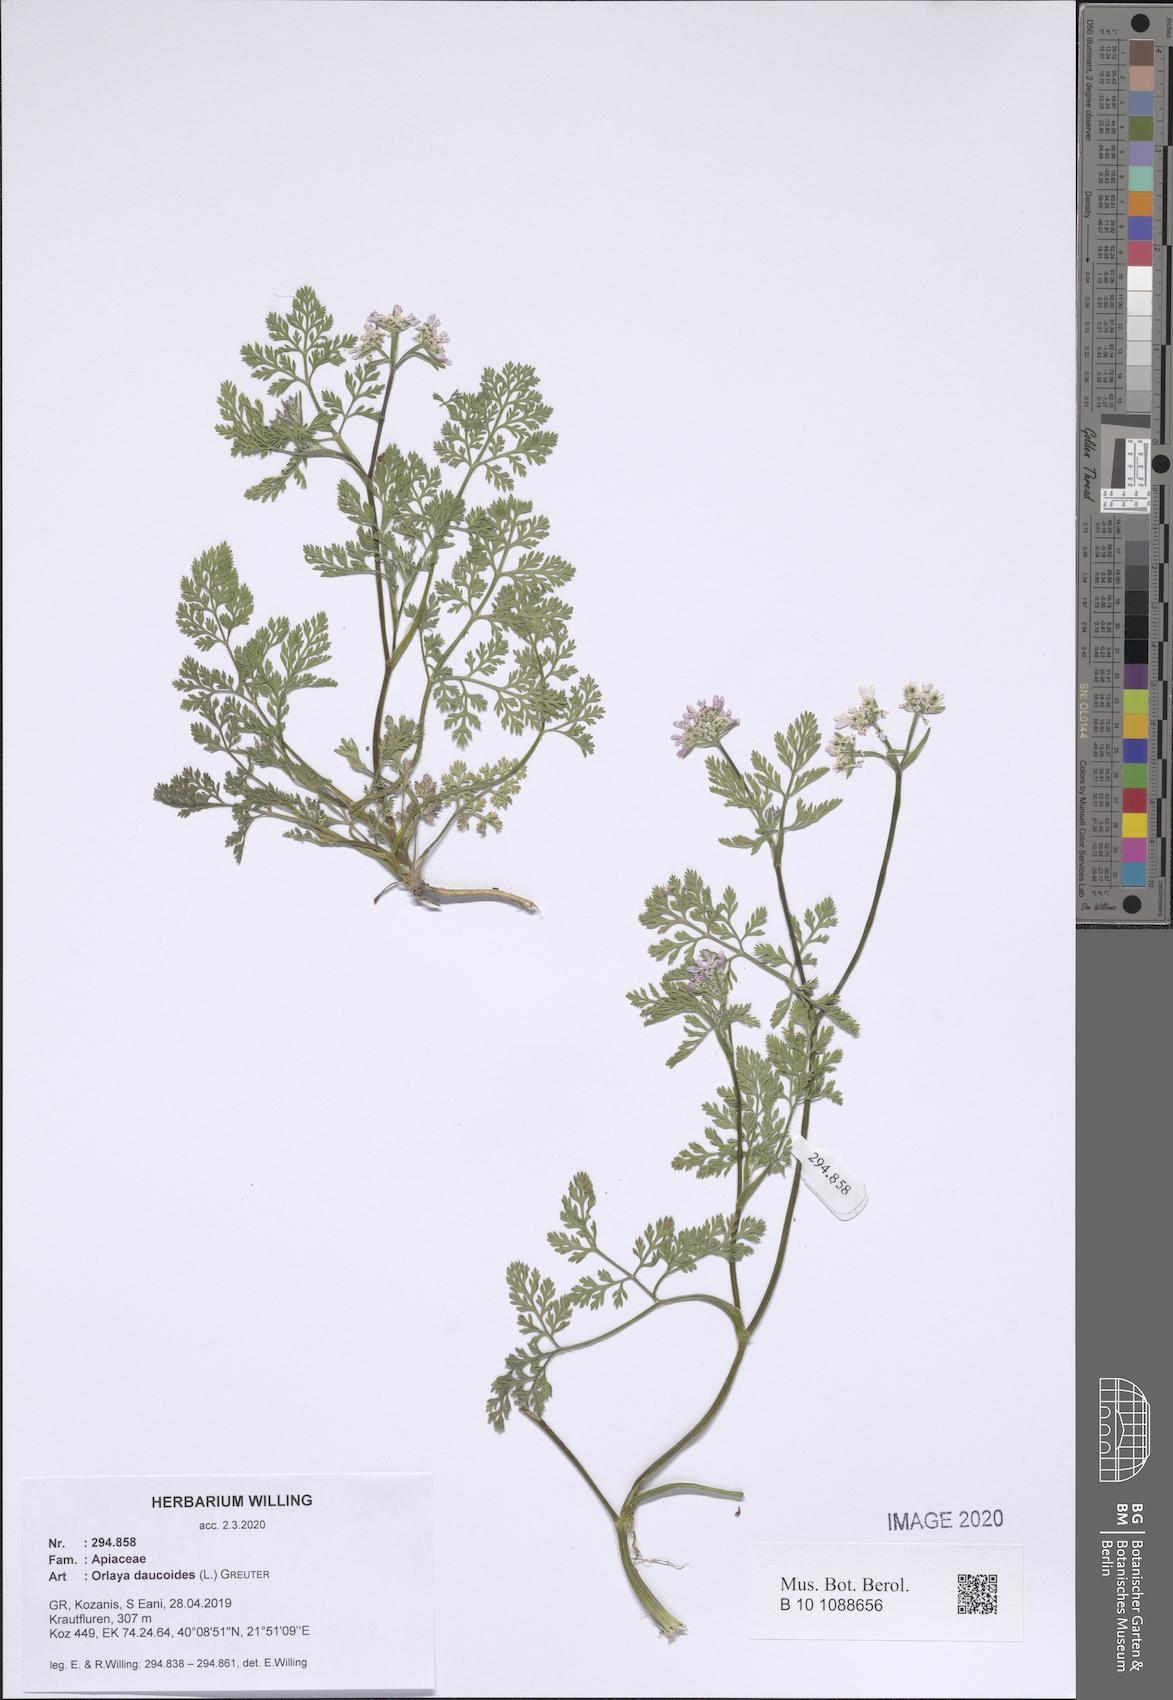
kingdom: Plantae
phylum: Tracheophyta
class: Magnoliopsida
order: Apiales
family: Apiaceae
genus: Orlaya
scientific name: Orlaya daucoides
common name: Flat-fruit orlaya
